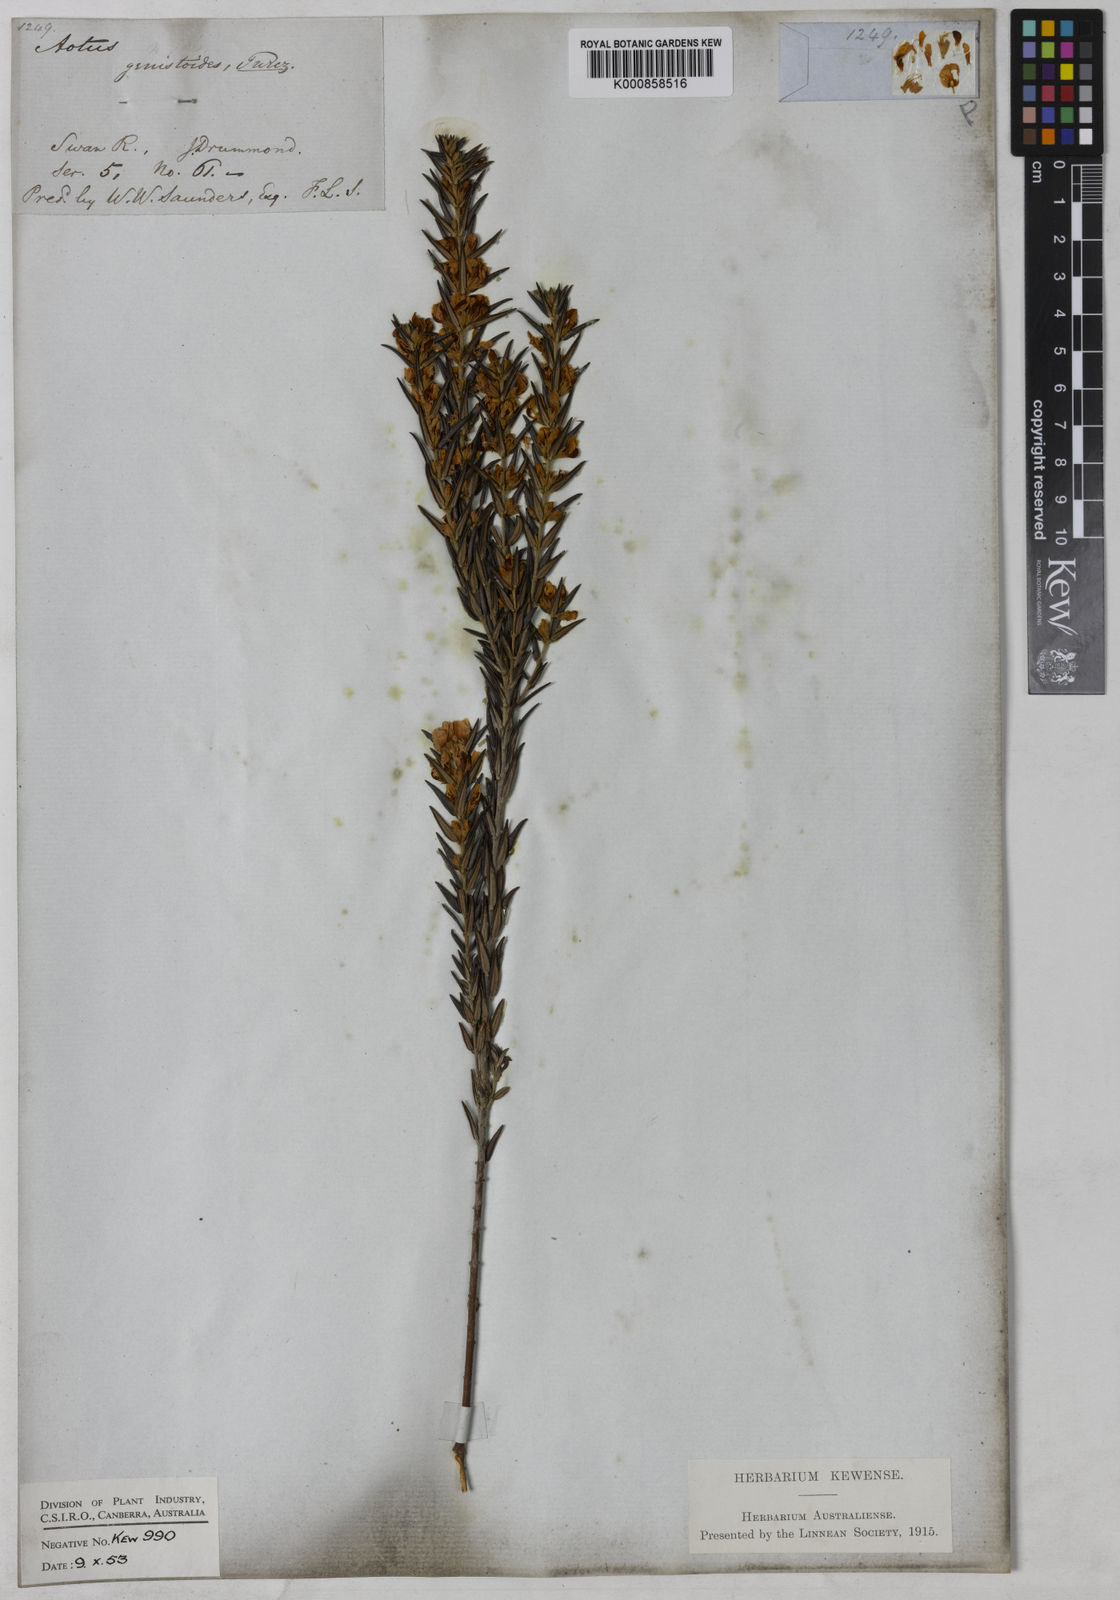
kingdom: Plantae
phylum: Tracheophyta
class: Magnoliopsida
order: Fabales
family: Fabaceae
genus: Aotus
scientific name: Aotus genistoides
